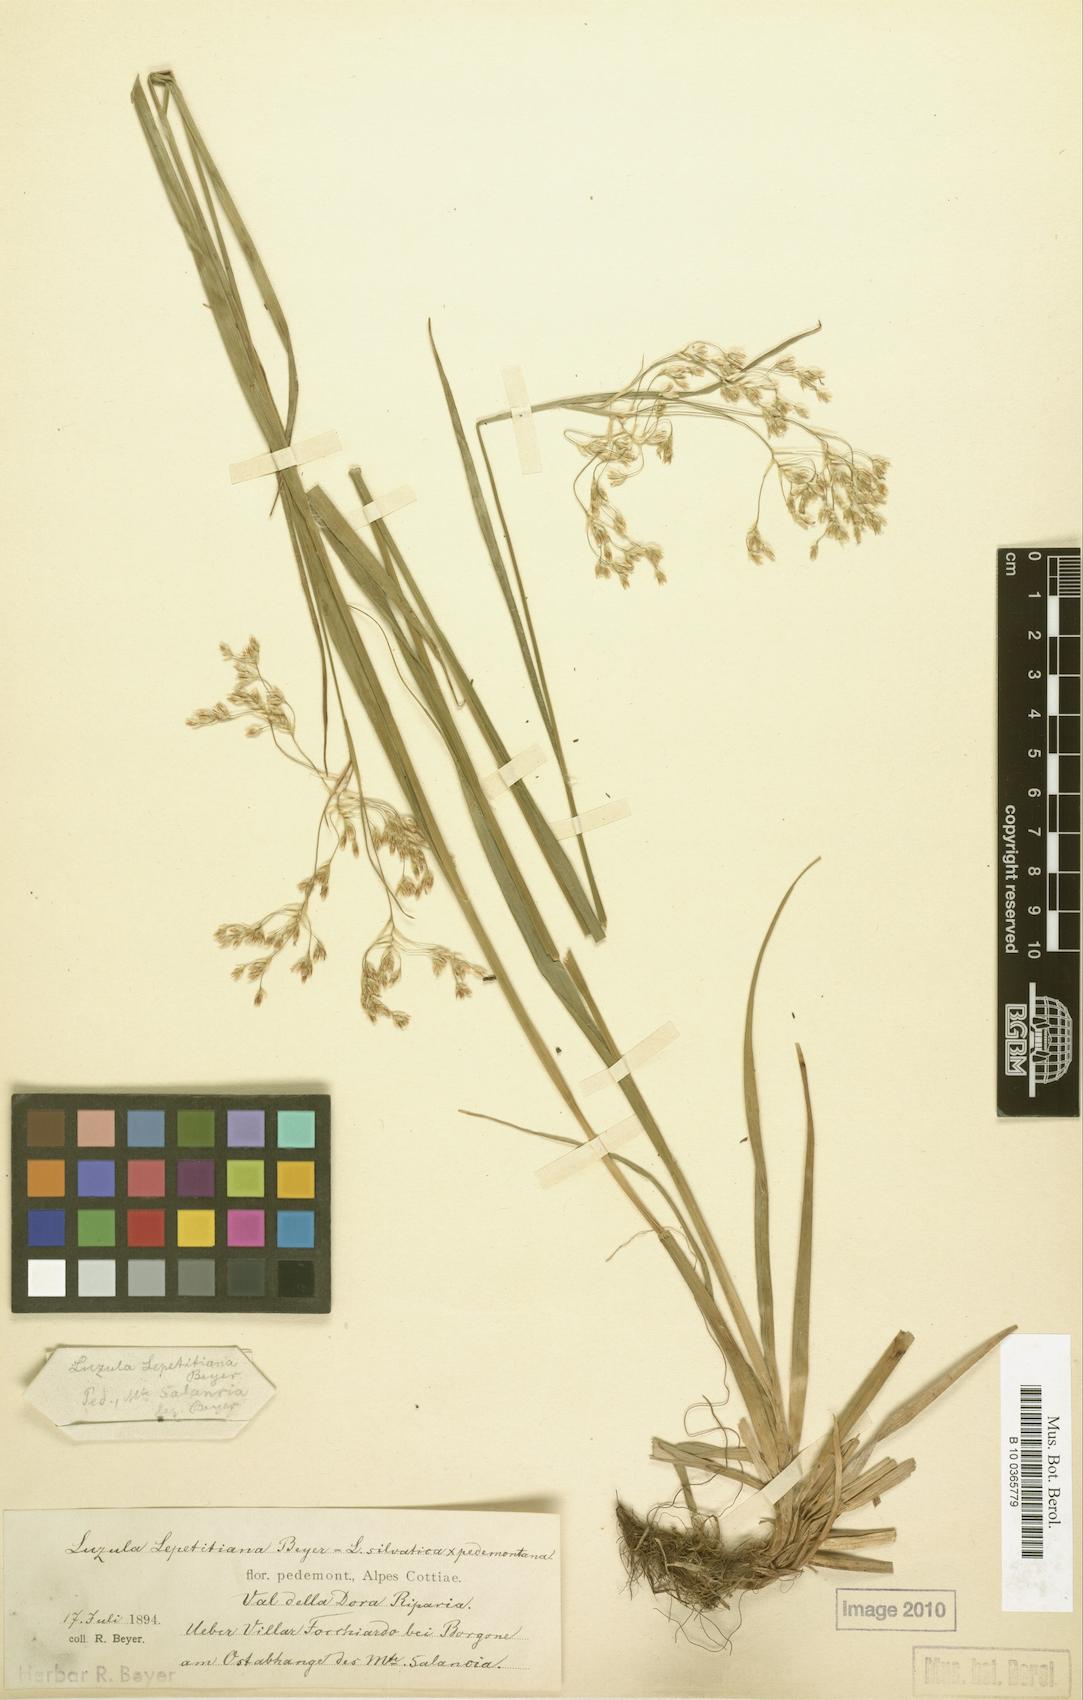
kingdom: Plantae
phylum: Tracheophyta
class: Liliopsida
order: Poales
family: Juncaceae
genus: Luzula
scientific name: Luzula lepetitiana
